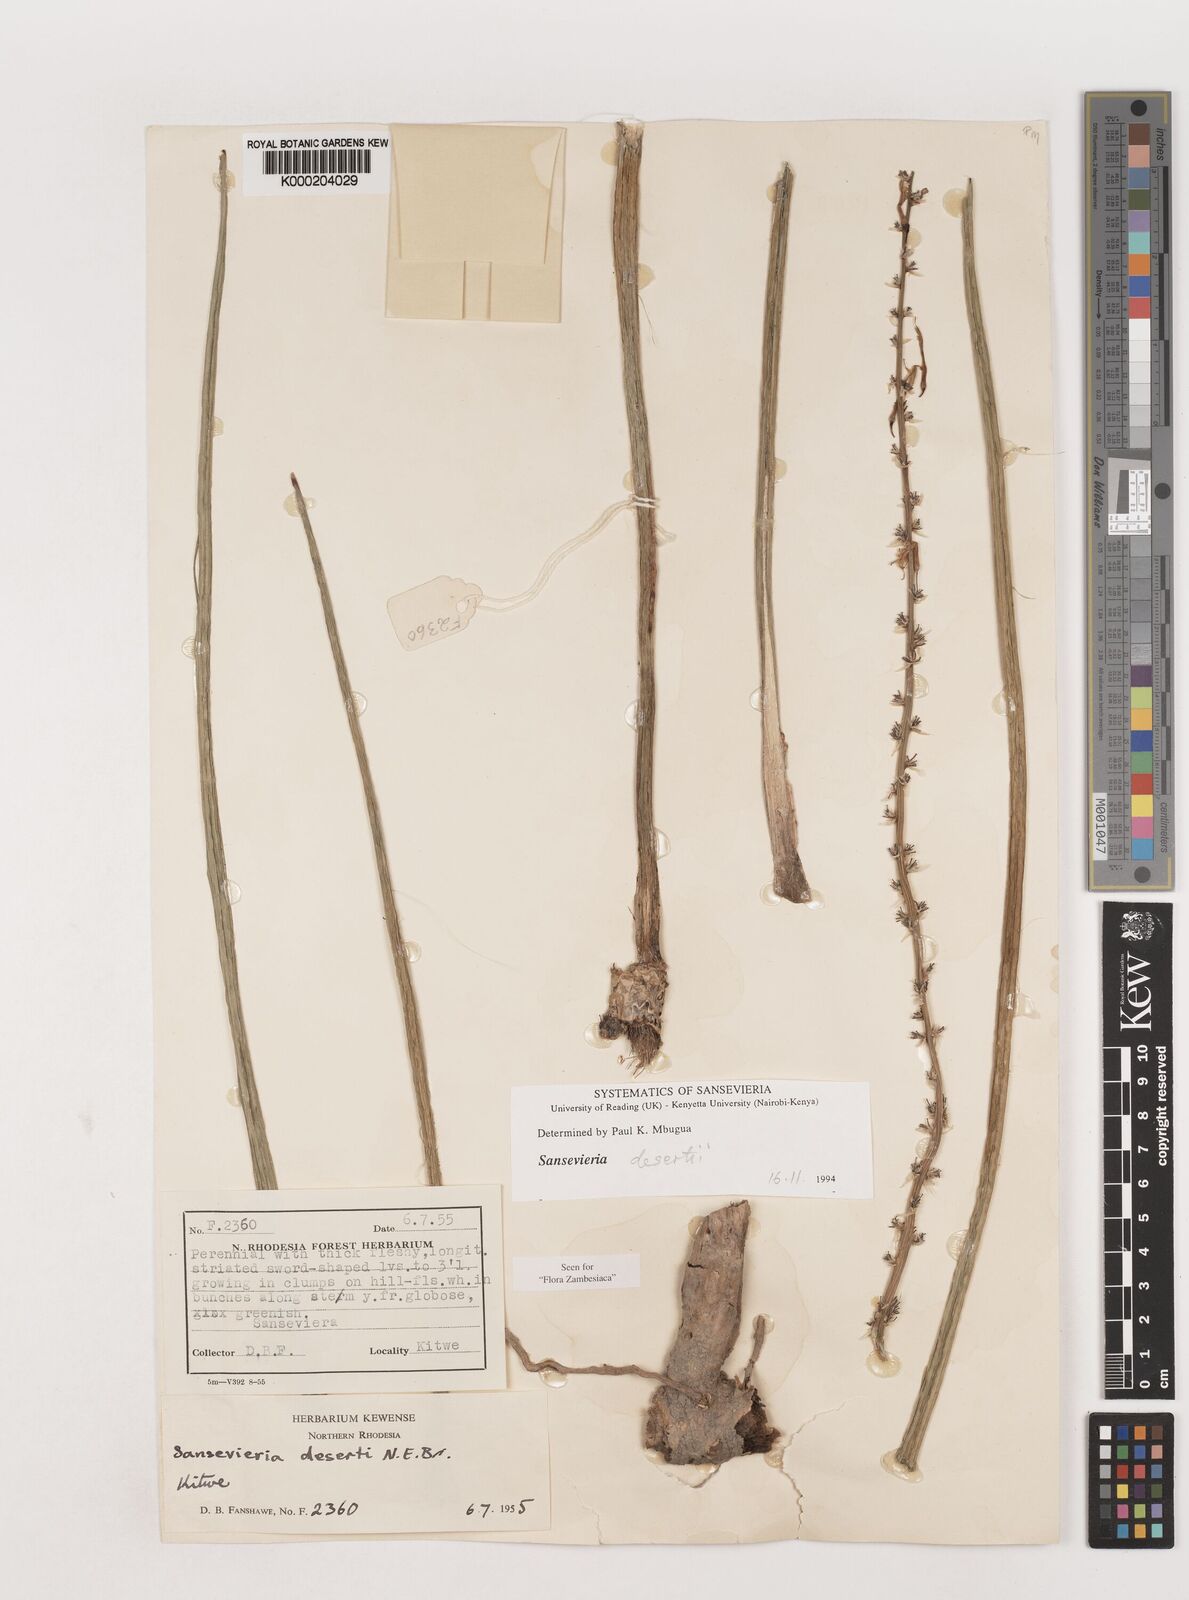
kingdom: Plantae
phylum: Tracheophyta
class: Liliopsida
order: Asparagales
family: Asparagaceae
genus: Dracaena
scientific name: Dracaena pearsonii
